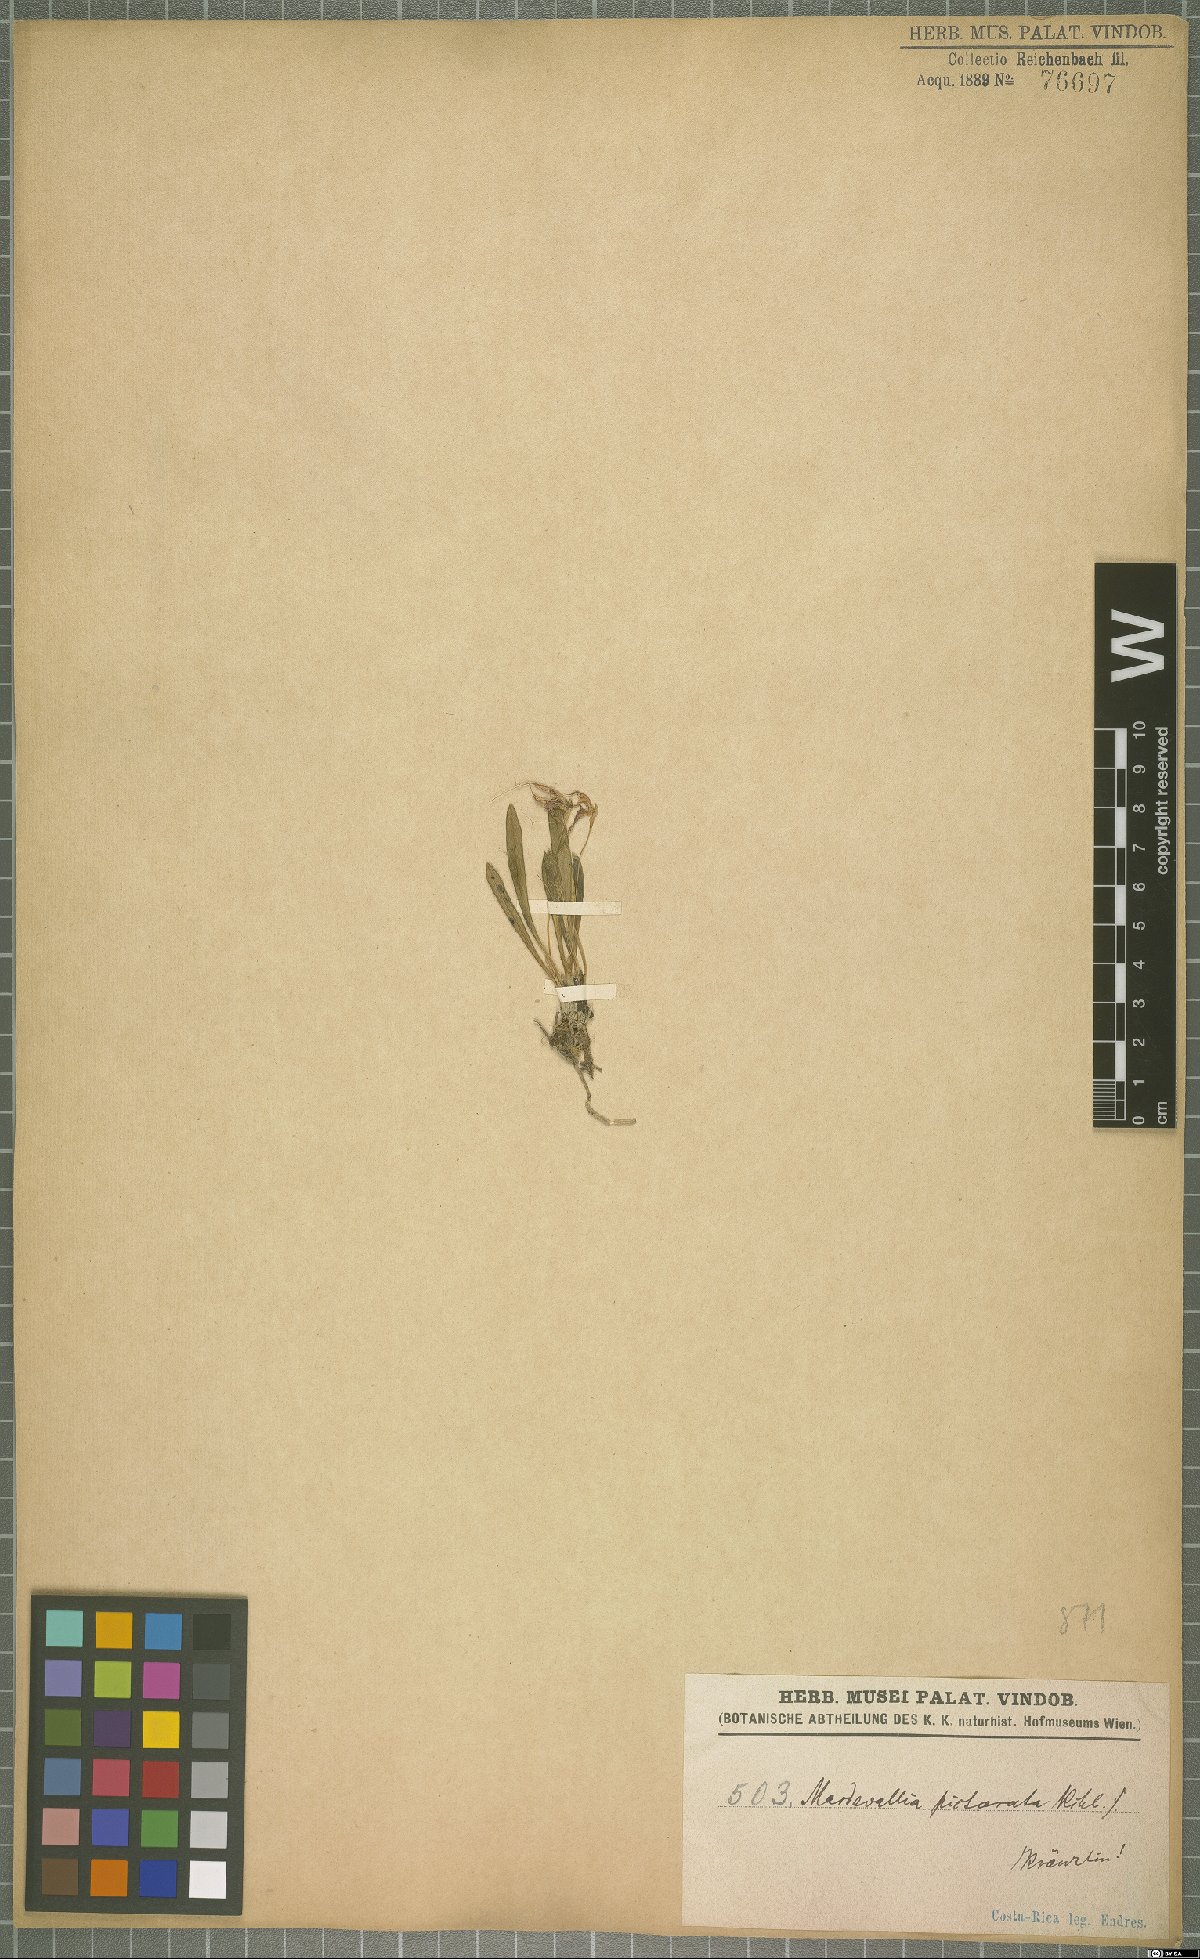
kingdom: Plantae
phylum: Tracheophyta
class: Liliopsida
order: Asparagales
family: Orchidaceae
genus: Masdevallia
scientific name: Masdevallia picturata
